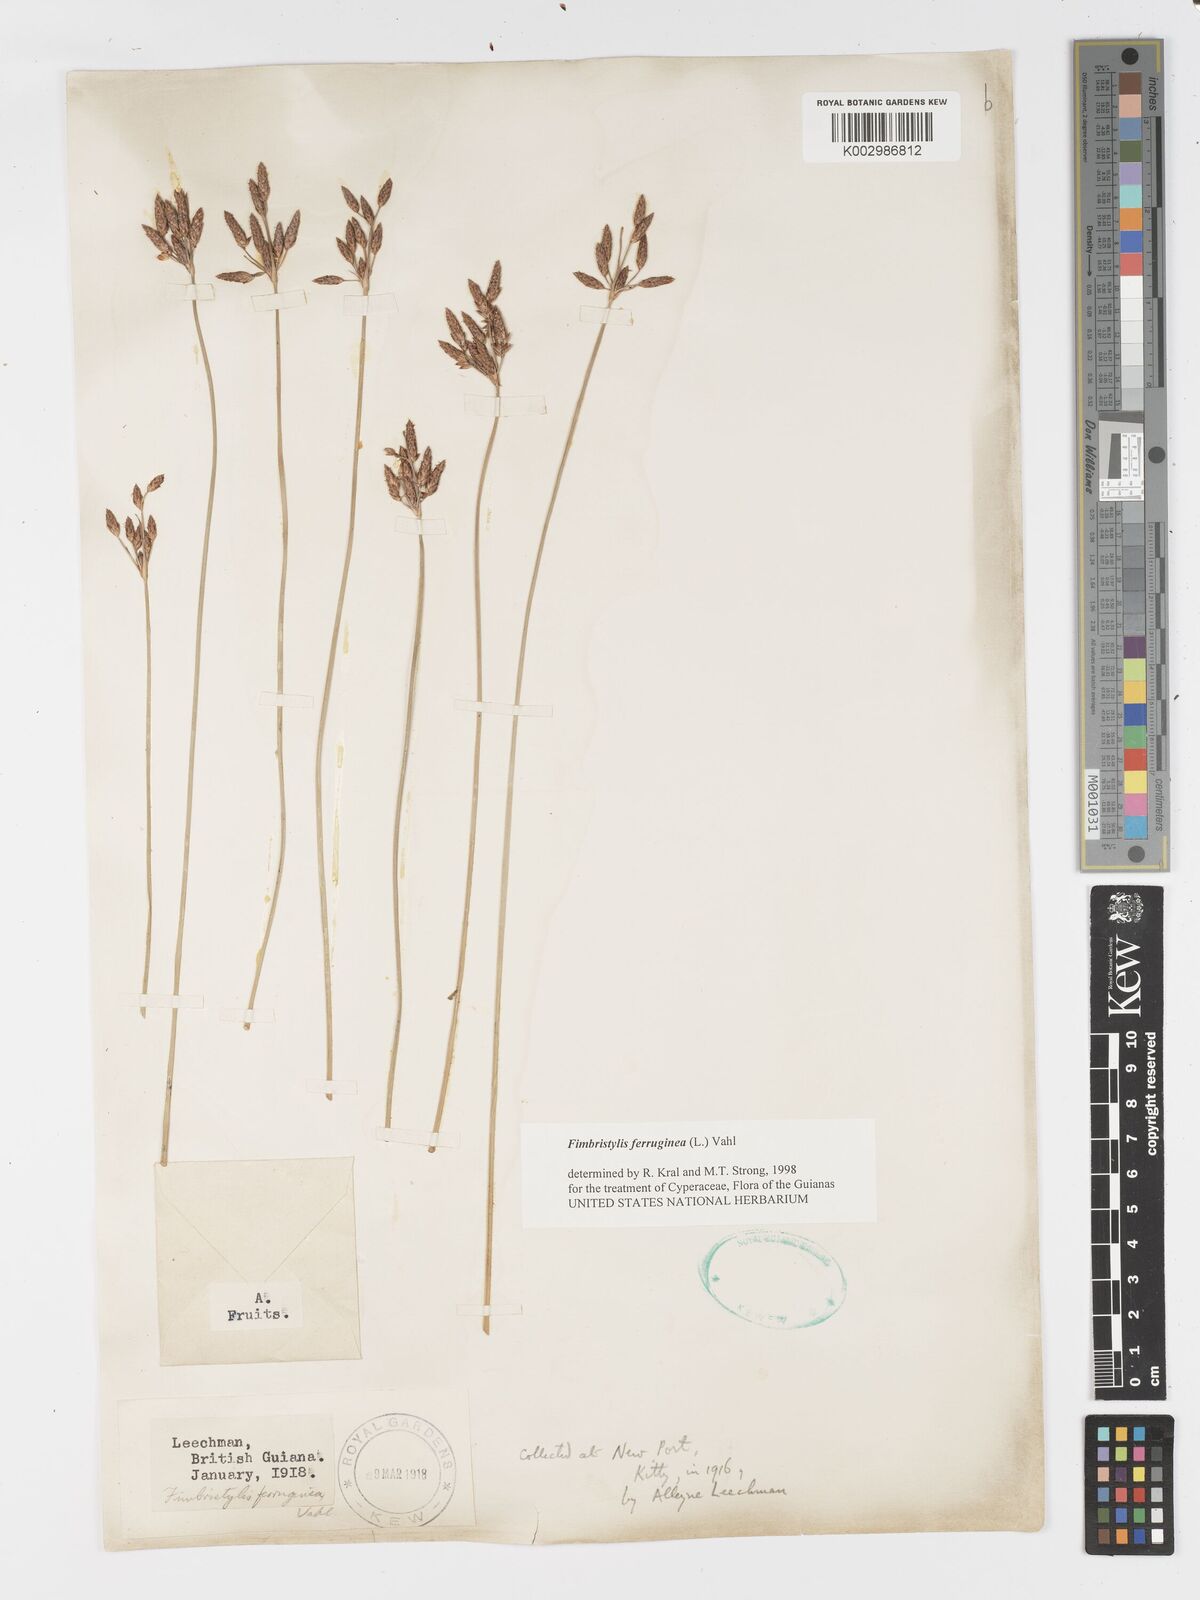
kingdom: Plantae
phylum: Tracheophyta
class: Liliopsida
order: Poales
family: Cyperaceae
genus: Fimbristylis
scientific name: Fimbristylis ferruginea
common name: West indian fimbry
